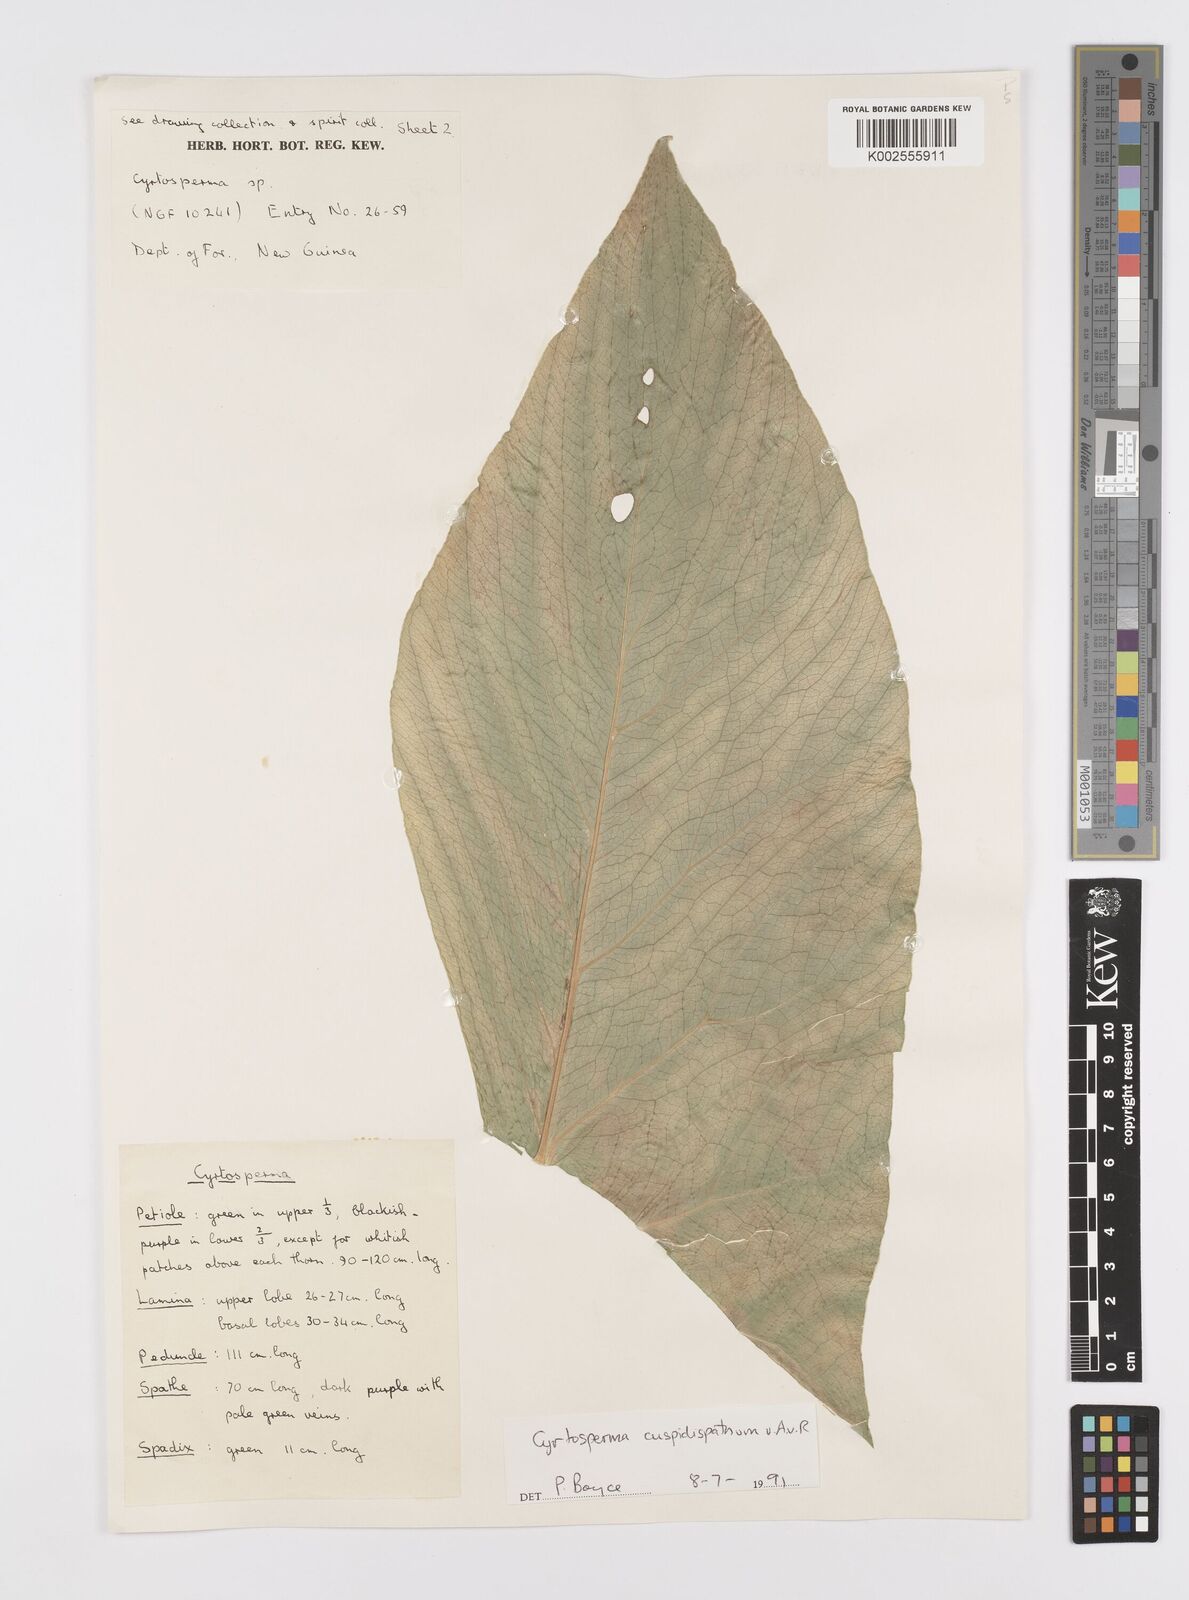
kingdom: Plantae
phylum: Tracheophyta
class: Liliopsida
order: Alismatales
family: Araceae
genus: Cyrtosperma
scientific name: Cyrtosperma cuspidispathum
